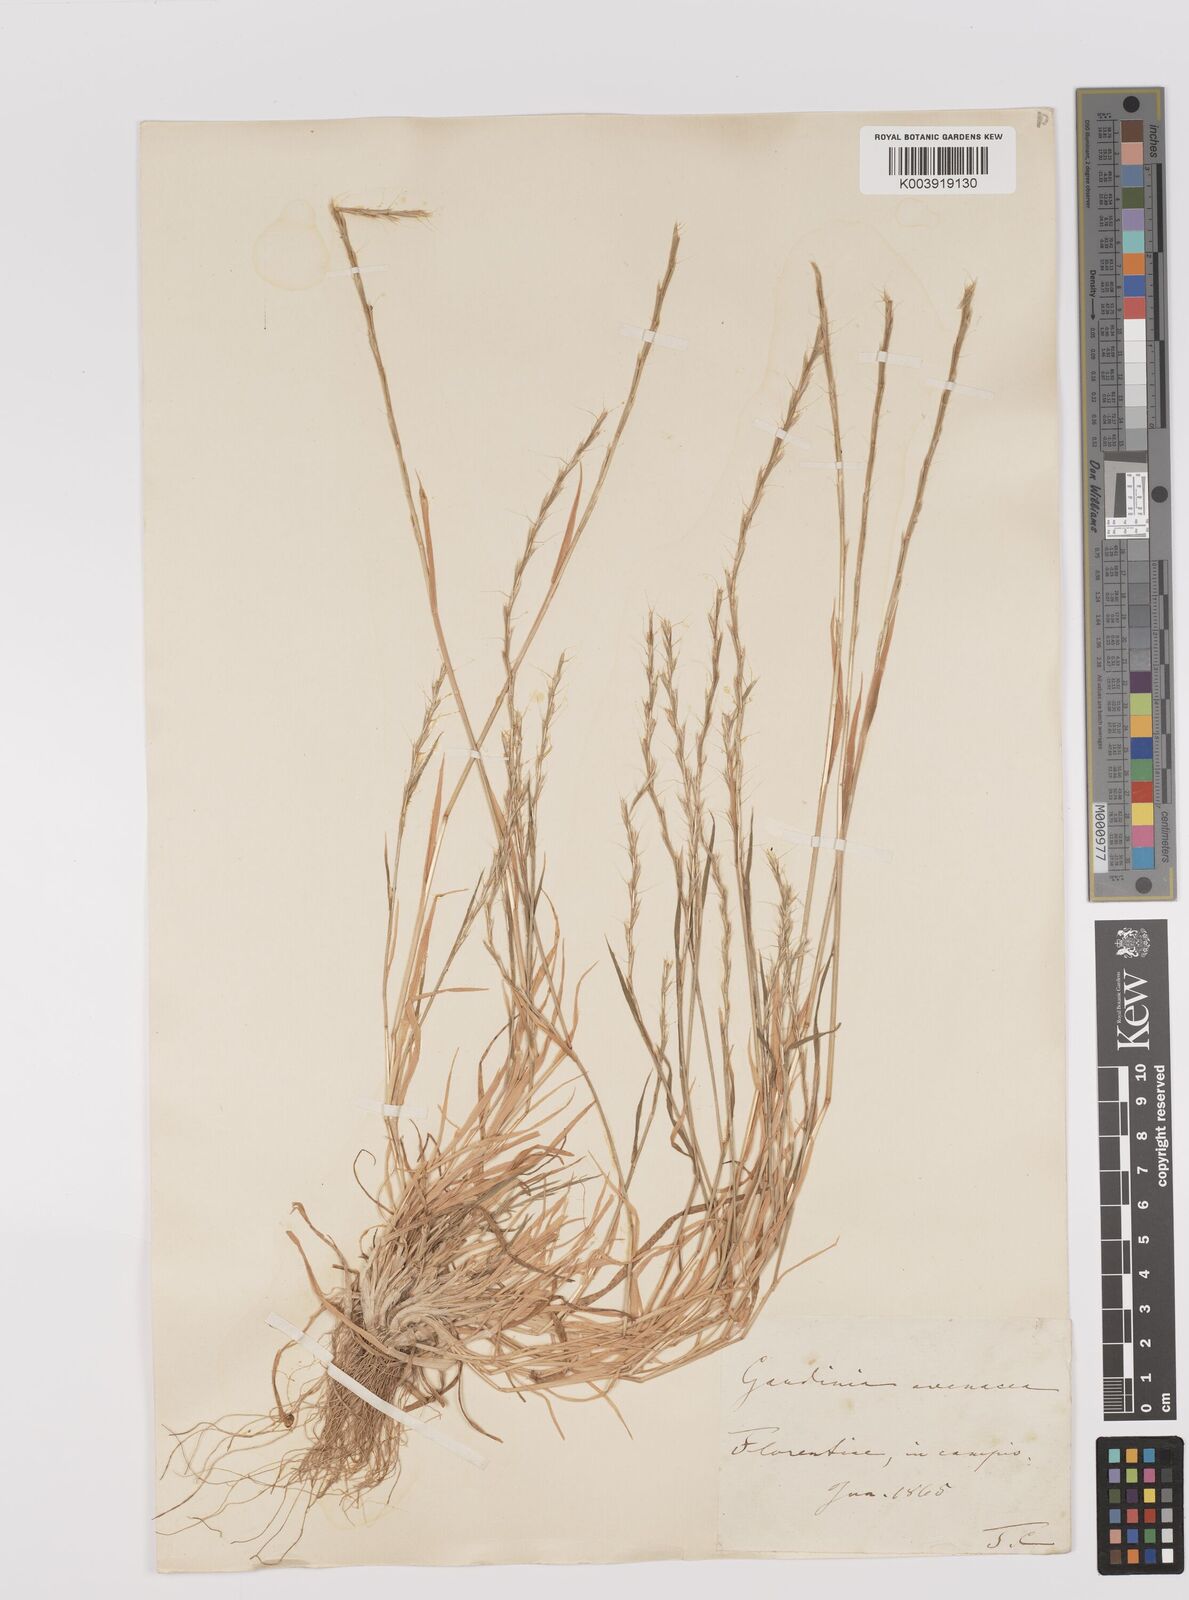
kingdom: Plantae
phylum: Tracheophyta
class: Liliopsida
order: Poales
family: Poaceae
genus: Gaudinia
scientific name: Gaudinia fragilis
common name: French oat-grass
